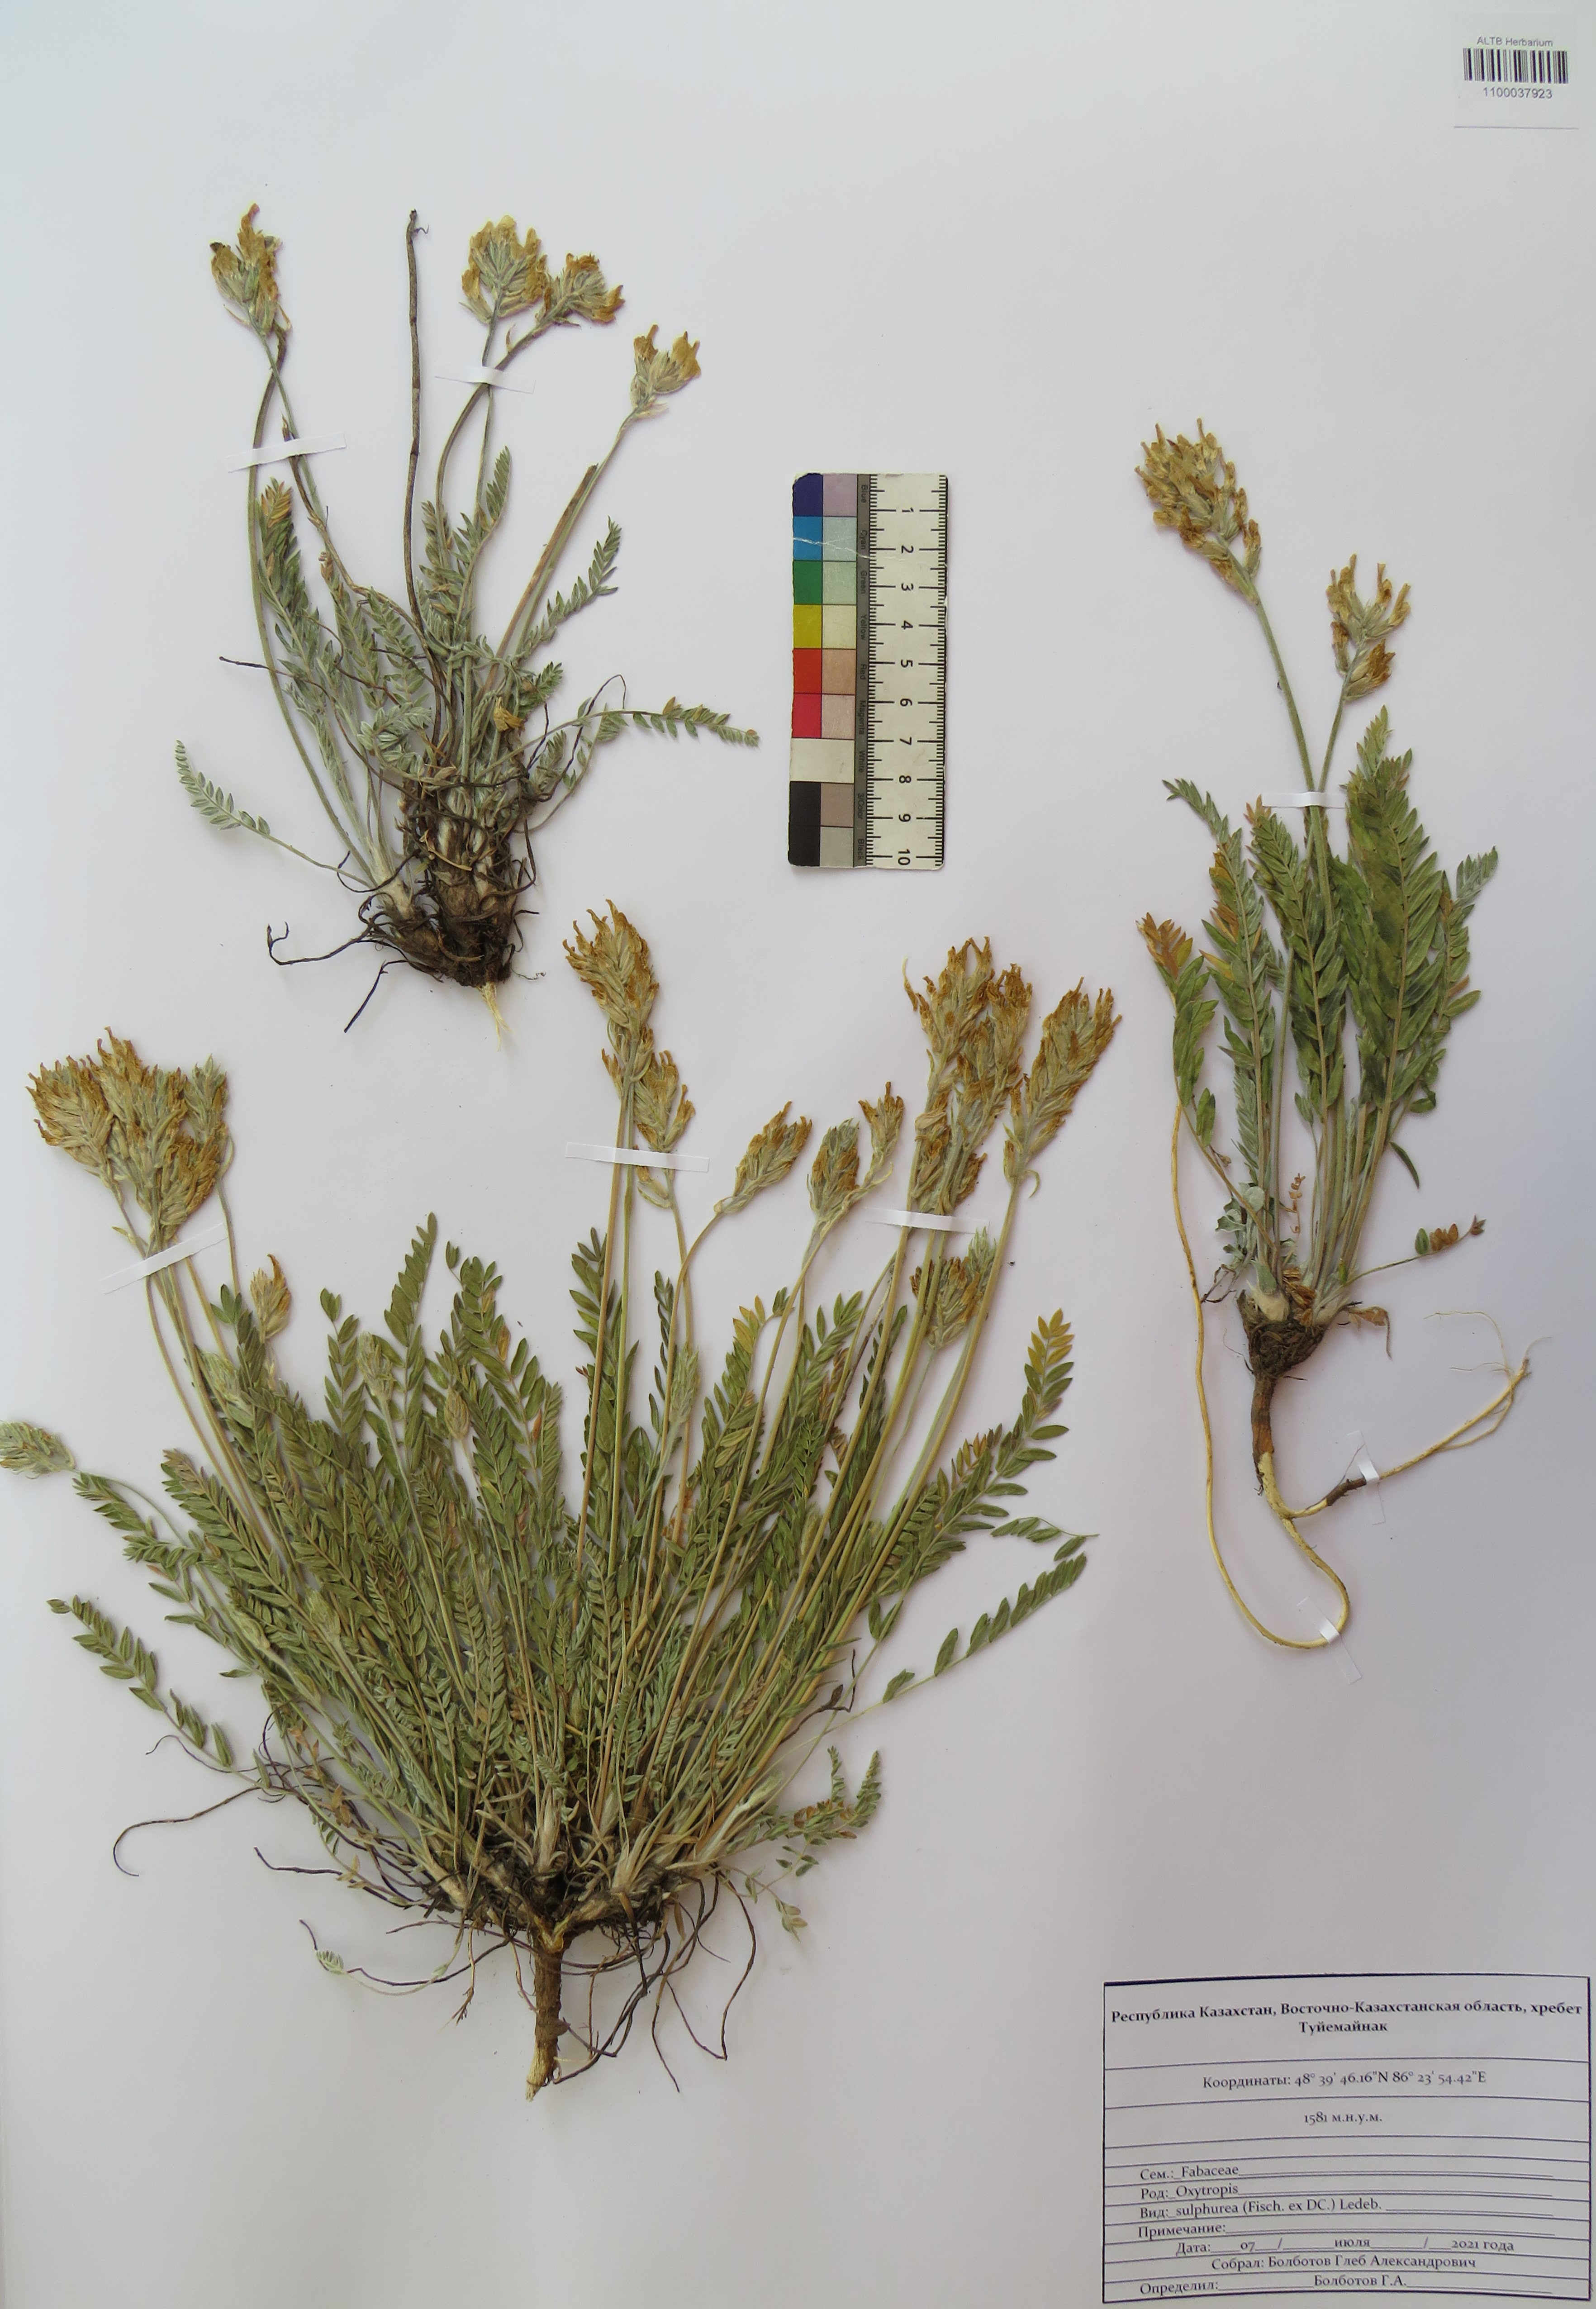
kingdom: Plantae
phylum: Tracheophyta
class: Magnoliopsida
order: Fabales
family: Fabaceae
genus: Oxytropis
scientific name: Oxytropis sulphurea
